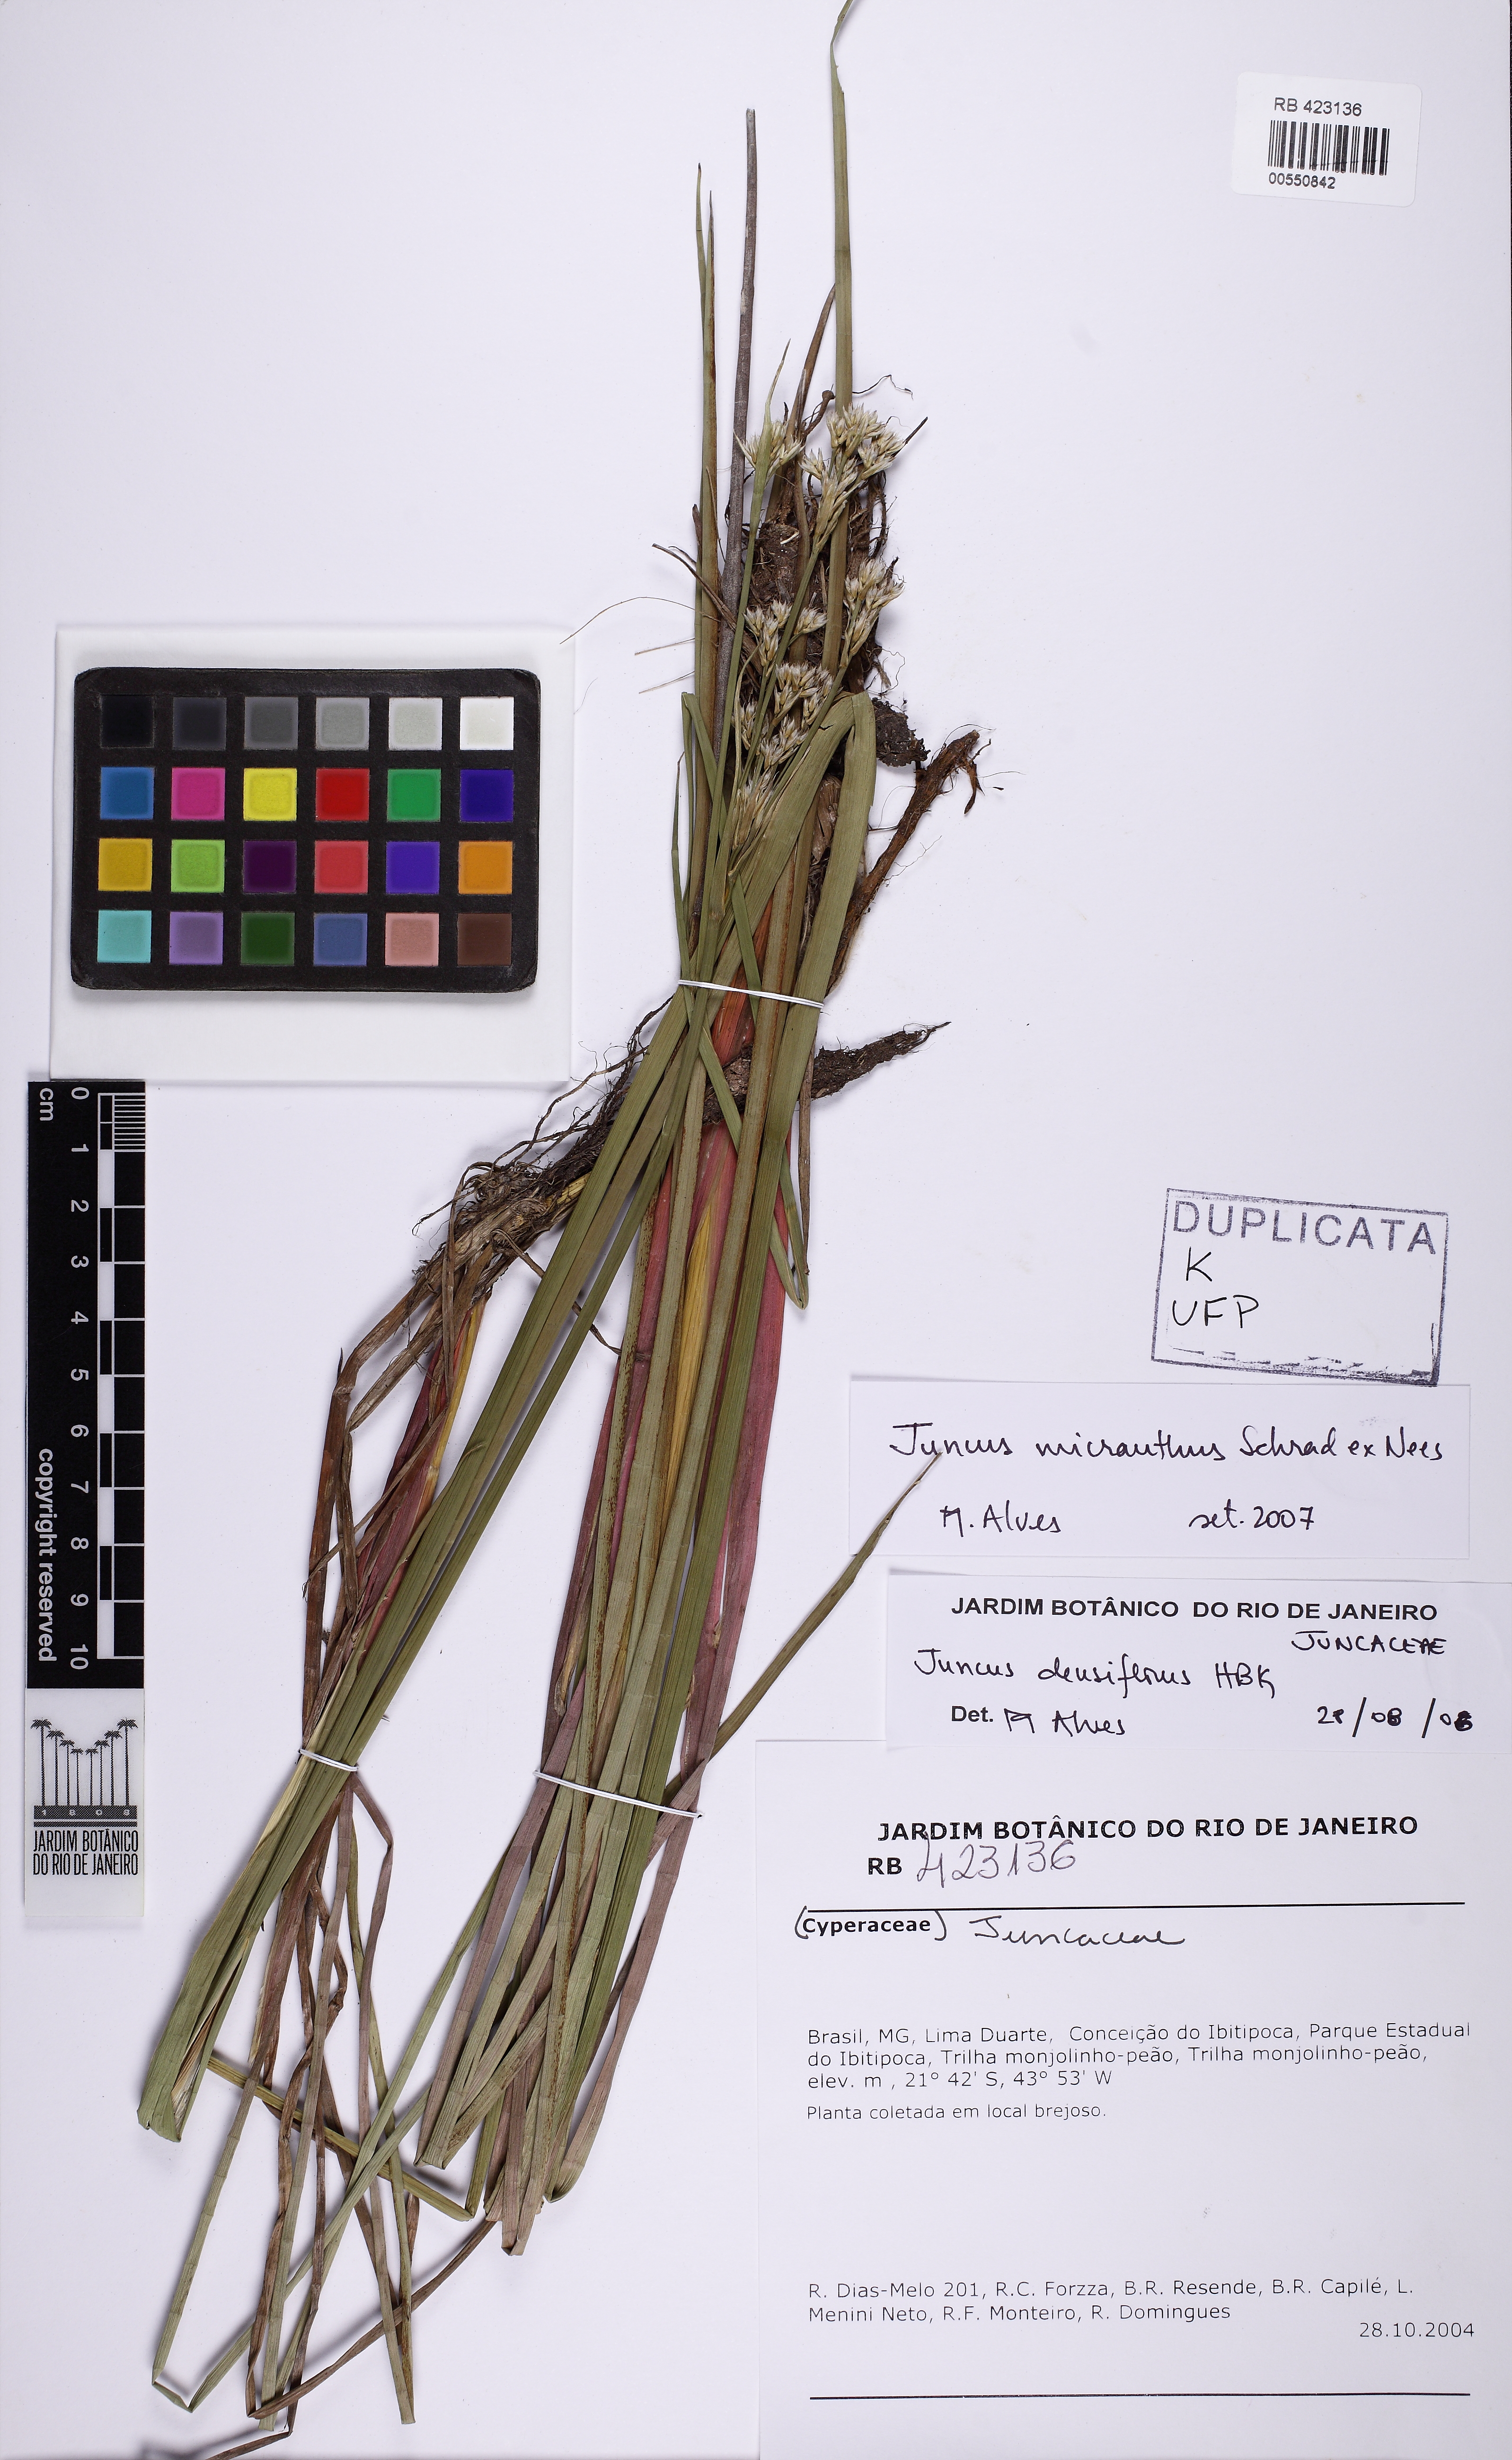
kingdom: Plantae
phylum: Tracheophyta
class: Liliopsida
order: Poales
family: Juncaceae
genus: Juncus
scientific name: Juncus micranthus
